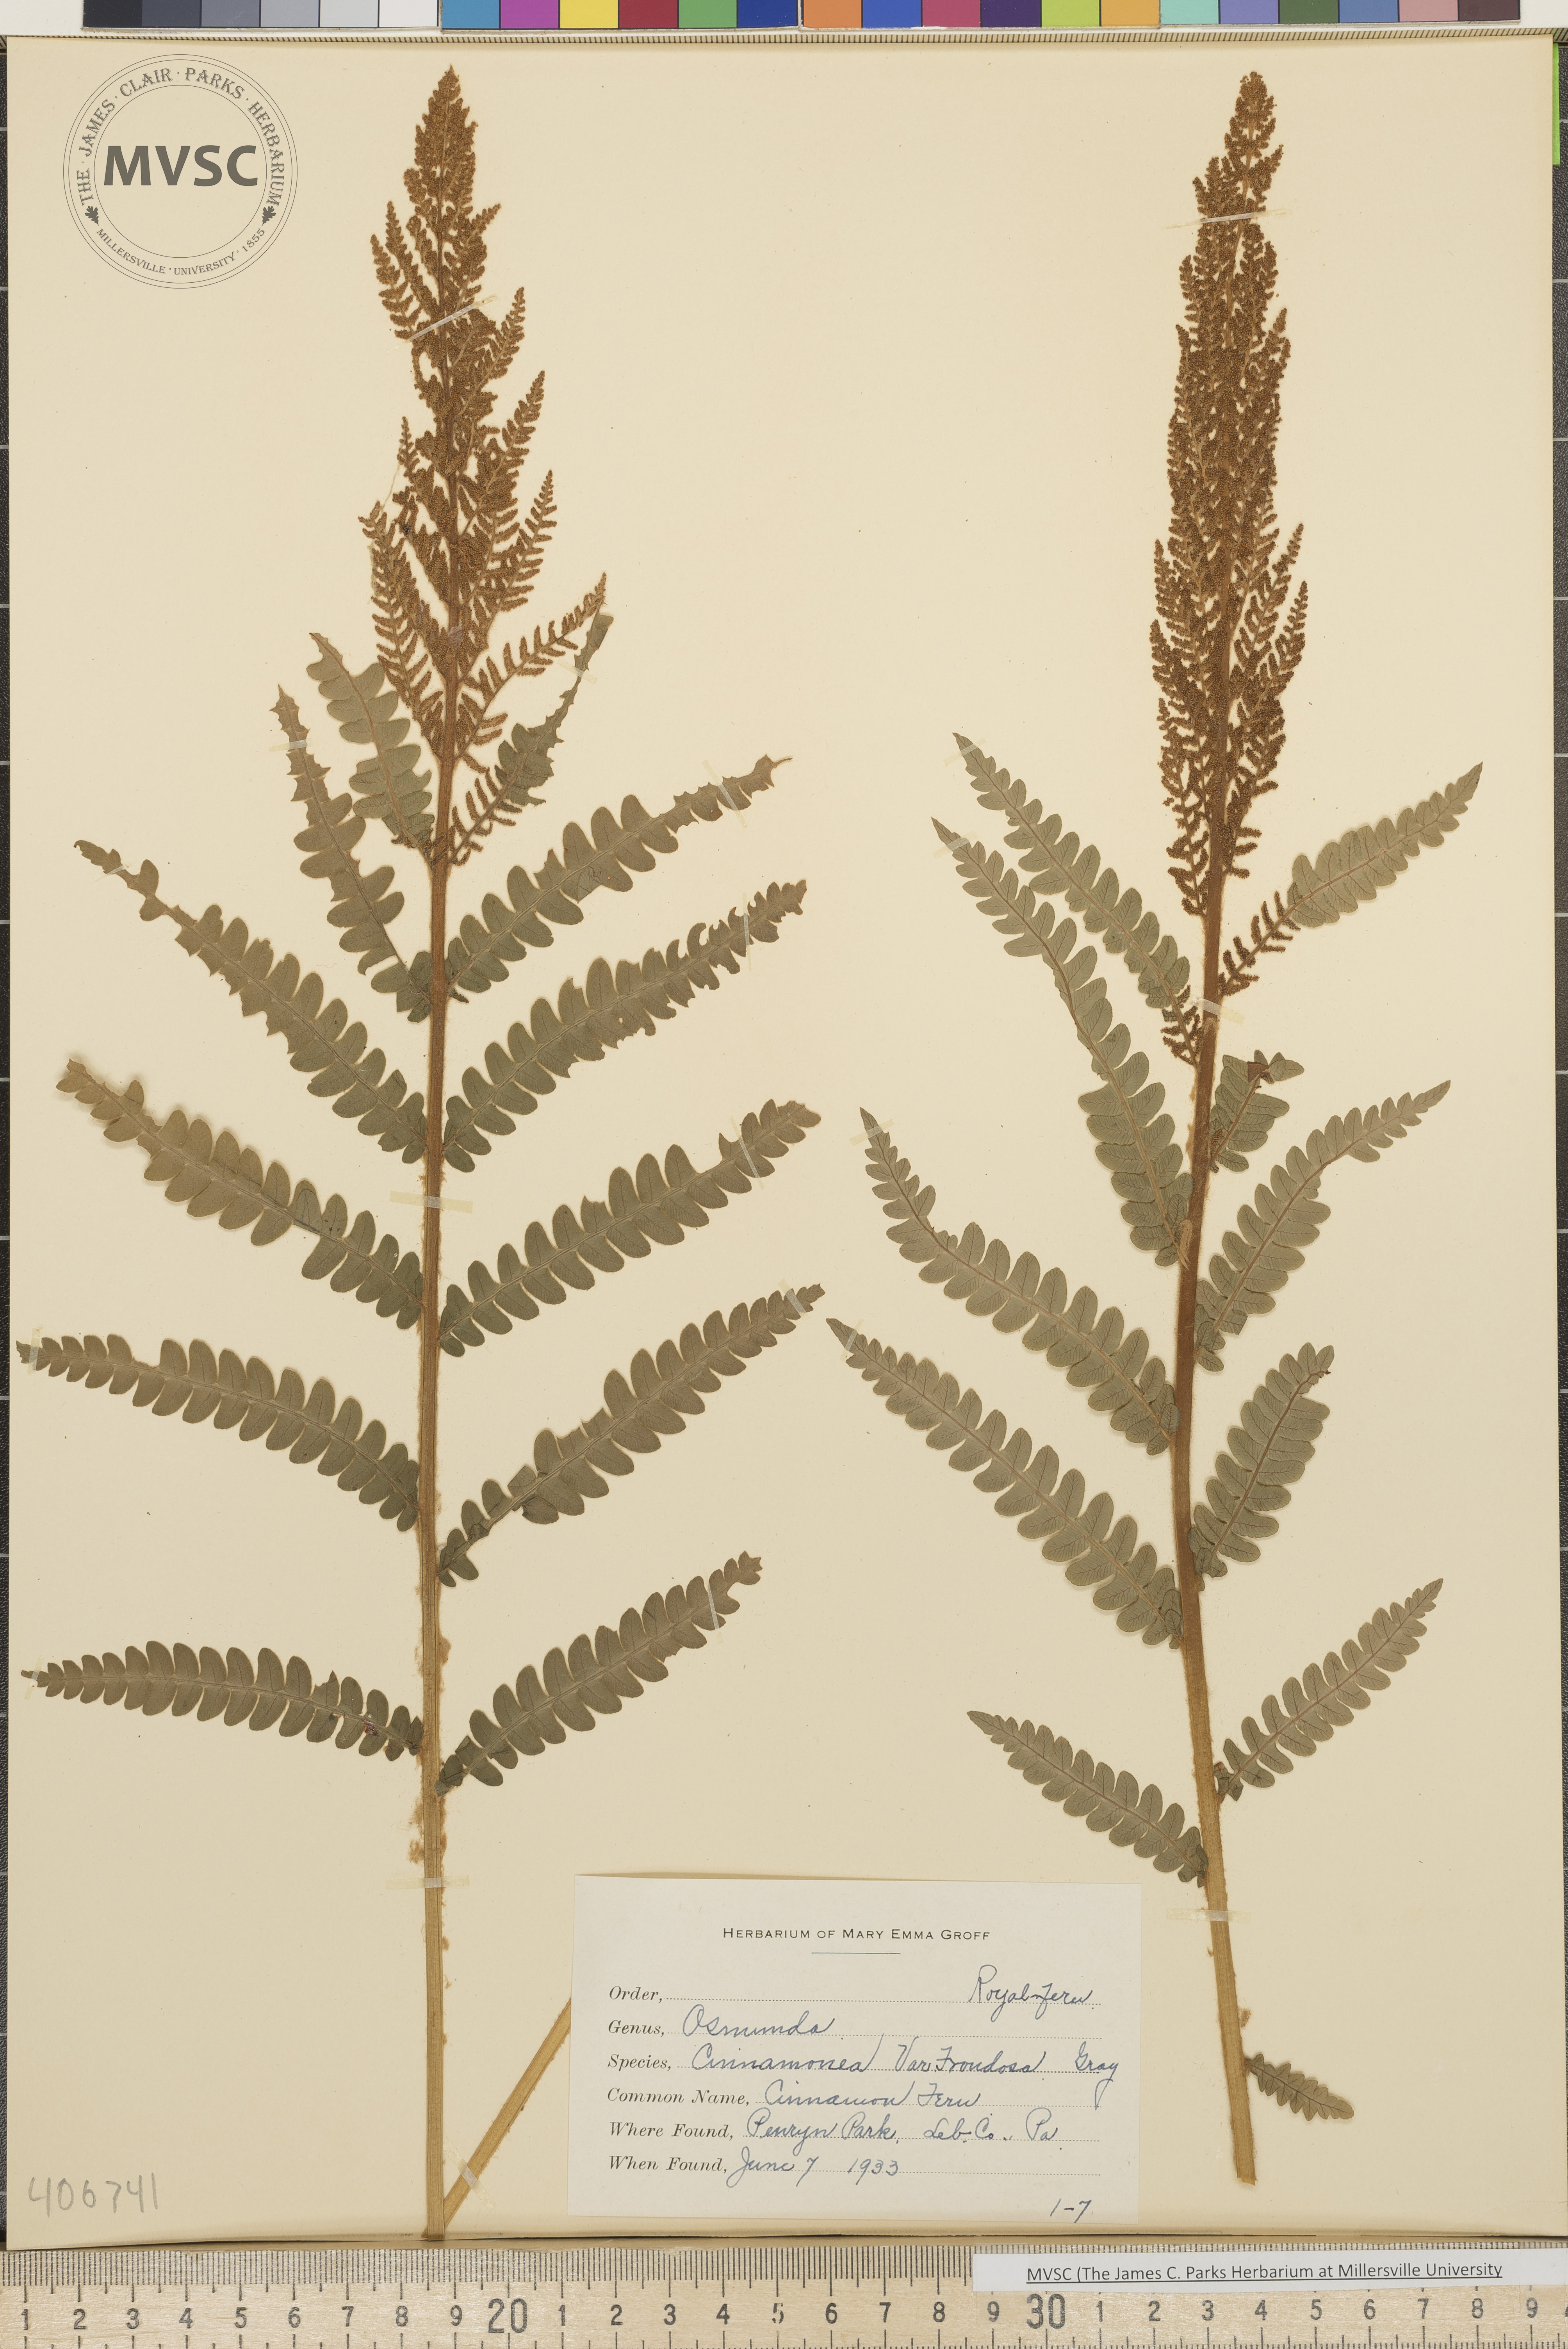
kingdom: Plantae
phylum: Tracheophyta
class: Polypodiopsida
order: Osmundales
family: Osmundaceae
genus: Osmundastrum
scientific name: Osmundastrum cinnamomeum
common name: Cinnamon fern
